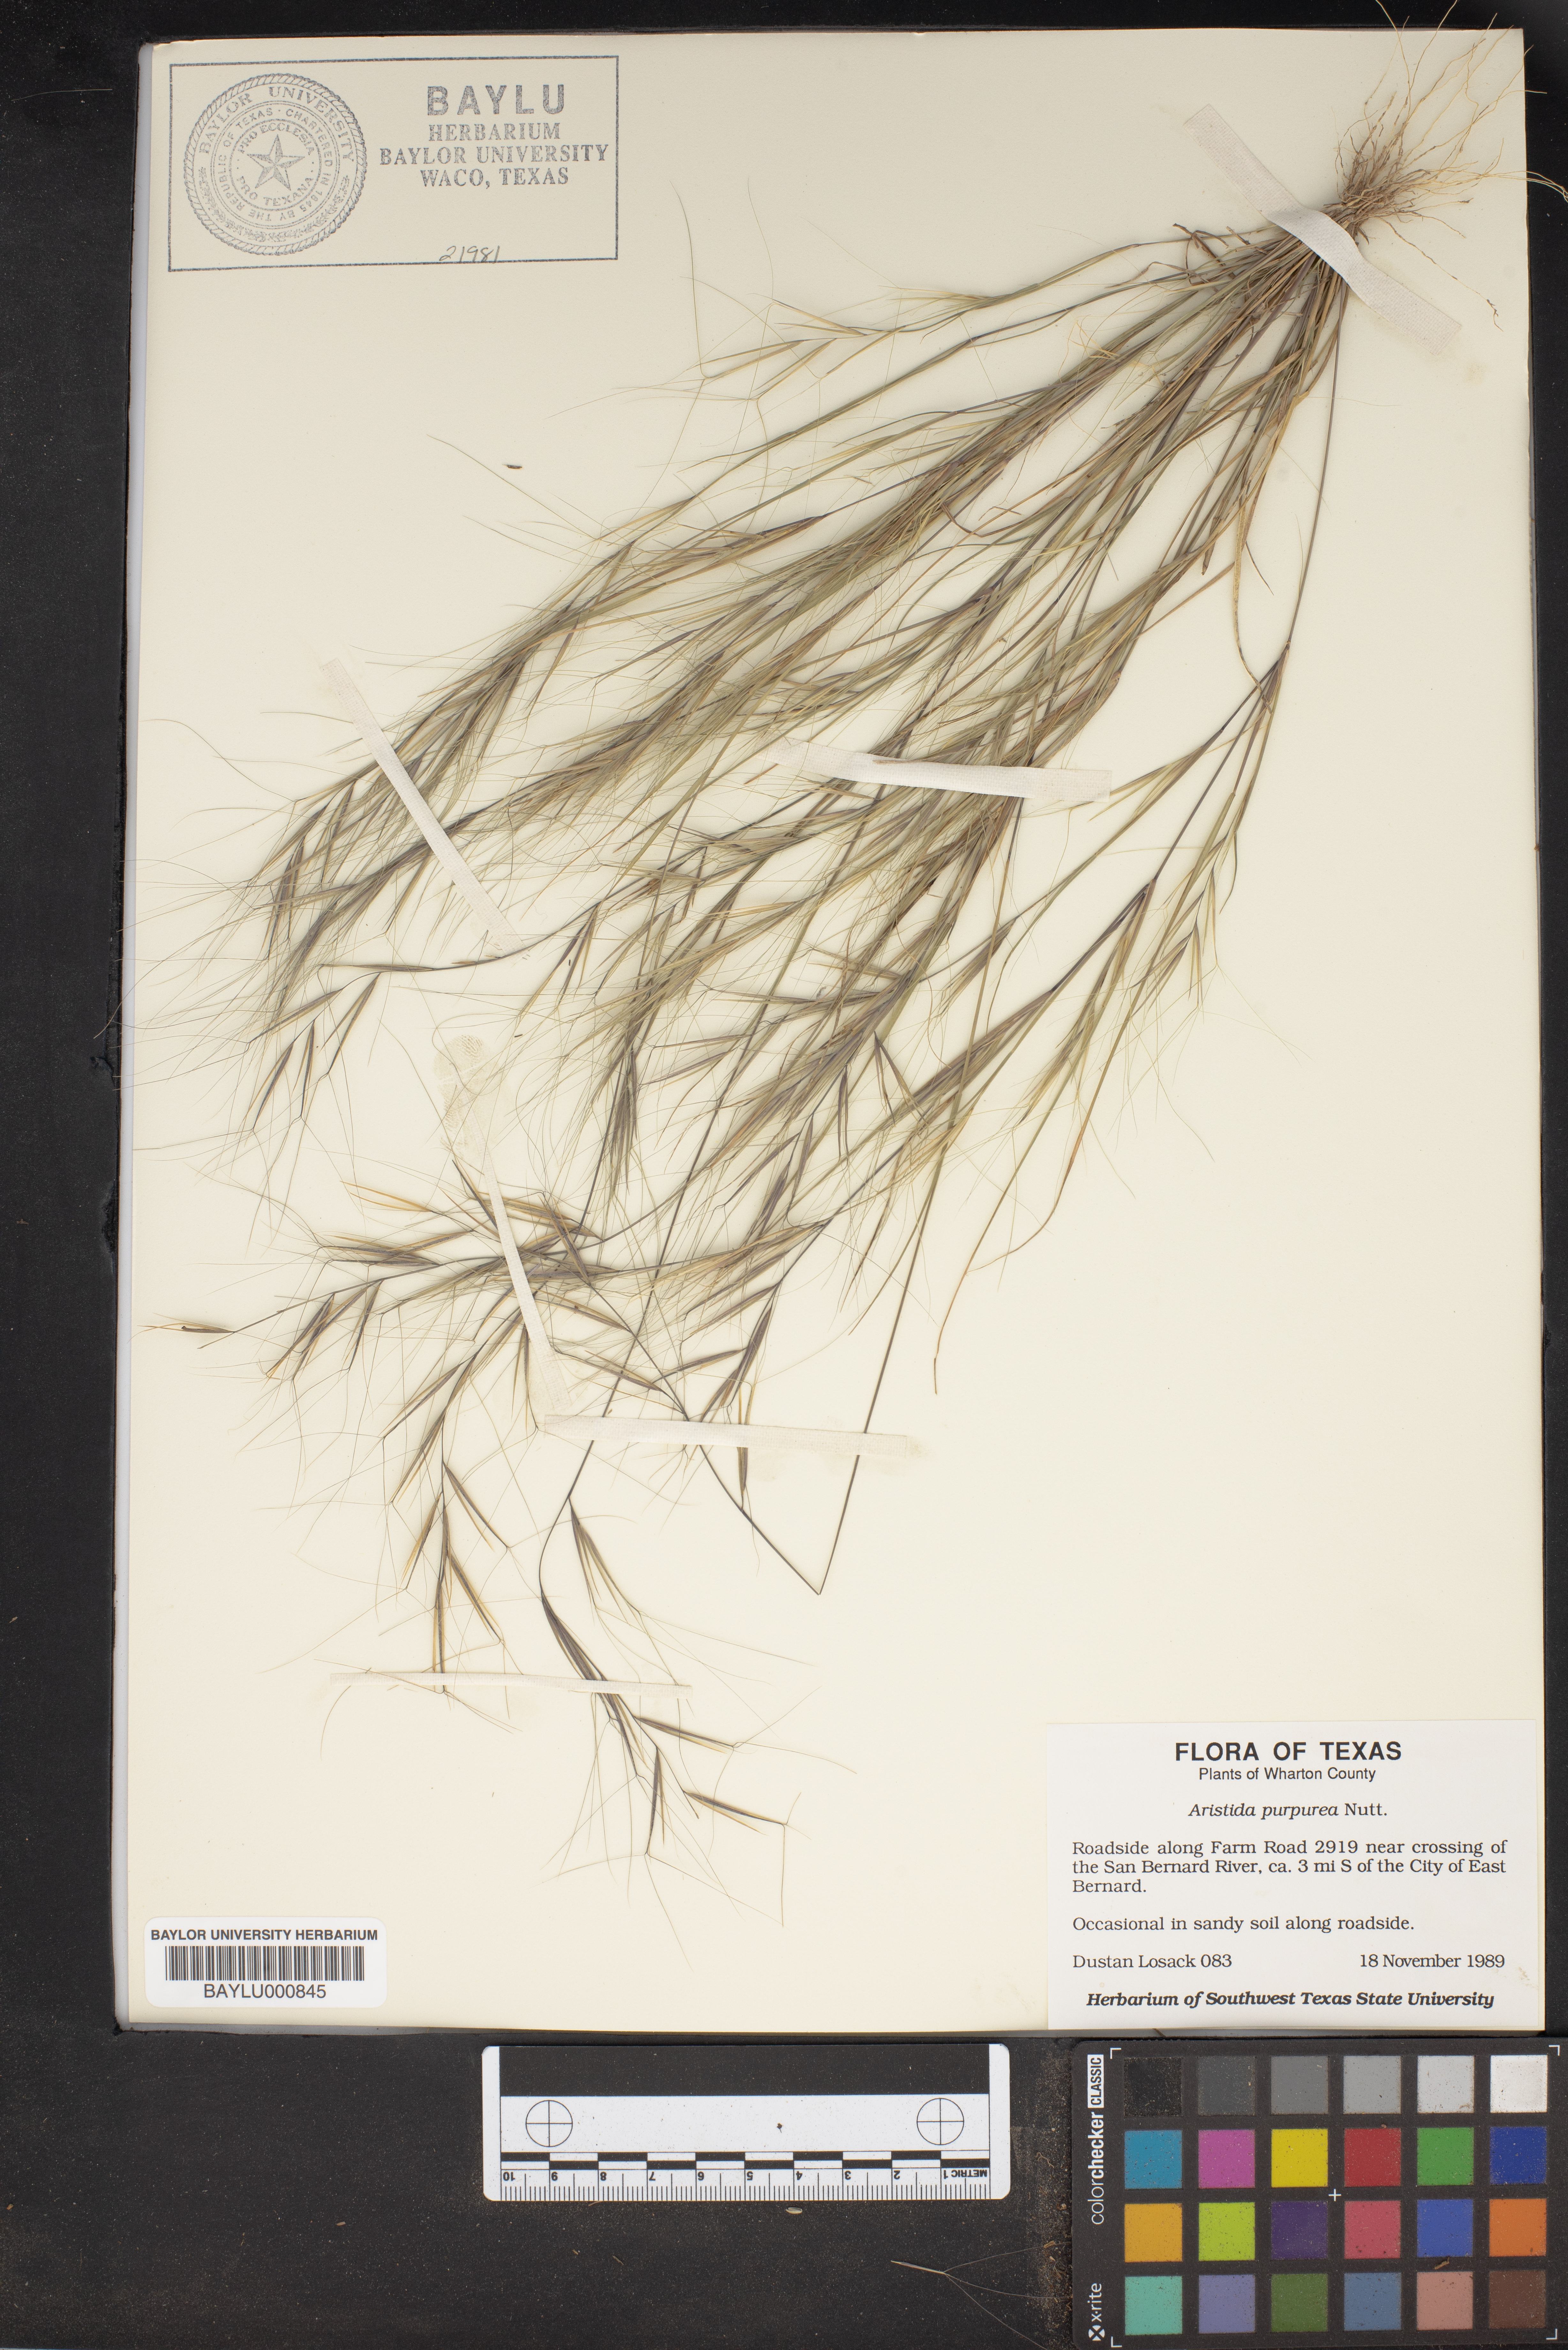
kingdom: Plantae
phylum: Tracheophyta
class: Liliopsida
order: Poales
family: Poaceae
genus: Aristida
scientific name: Aristida purpurea
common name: Purple threeawn
